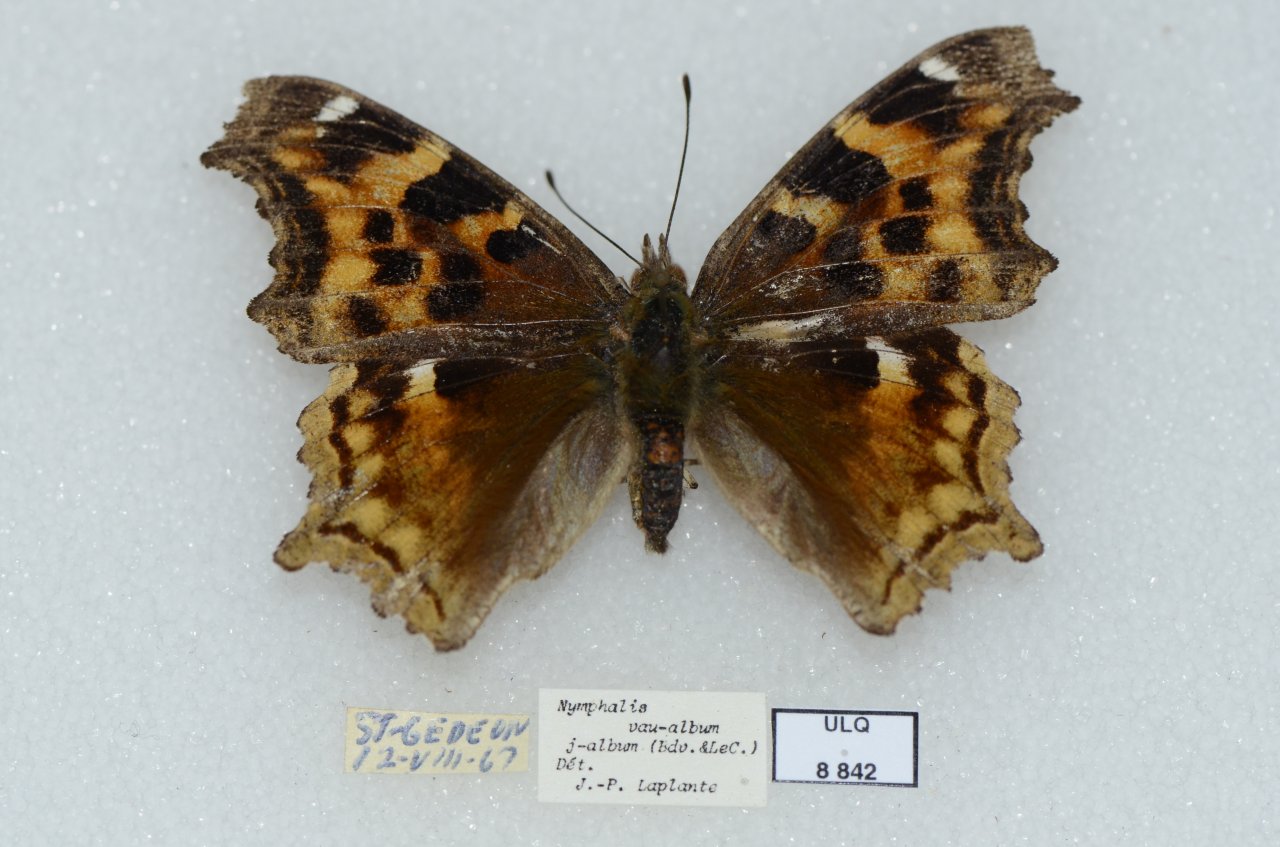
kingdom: Animalia
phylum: Arthropoda
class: Insecta
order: Lepidoptera
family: Nymphalidae
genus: Polygonia
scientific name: Polygonia vaualbum
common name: Compton Tortoiseshell
